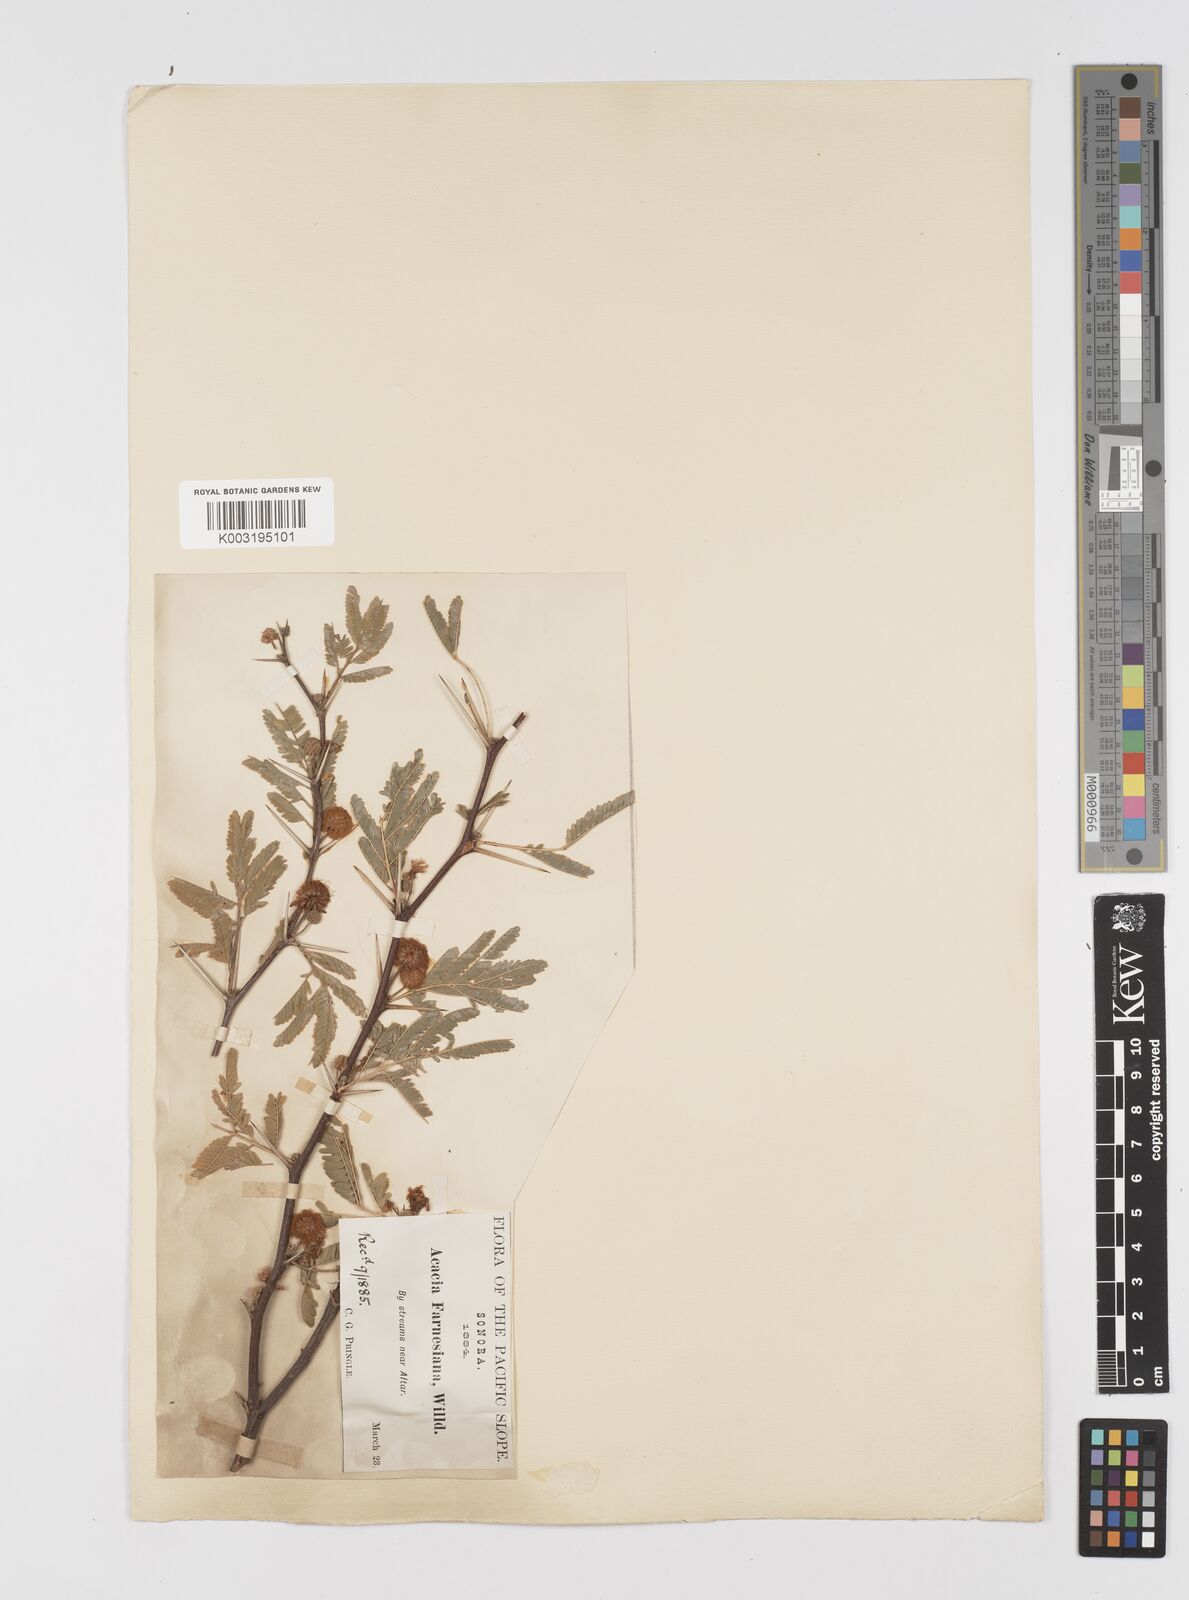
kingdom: Plantae
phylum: Tracheophyta
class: Magnoliopsida
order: Fabales
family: Fabaceae
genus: Vachellia
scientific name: Vachellia farnesiana
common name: Sweet acacia
